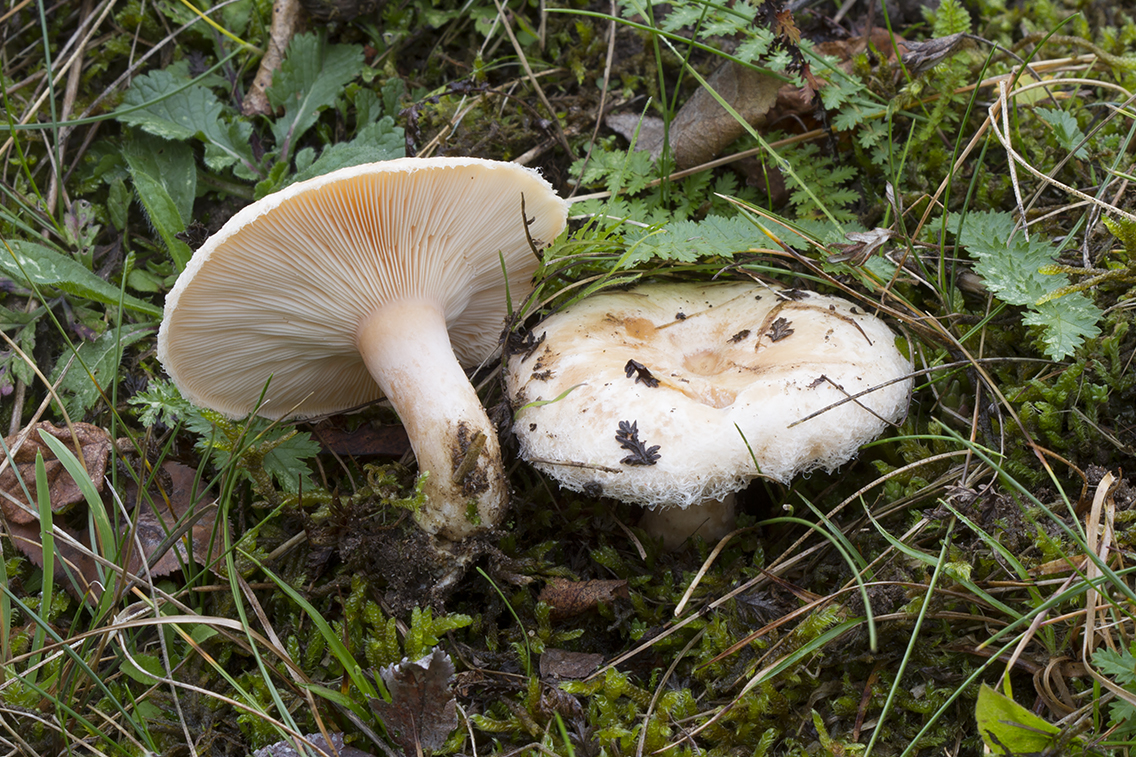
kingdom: Fungi
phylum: Basidiomycota
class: Agaricomycetes
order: Russulales
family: Russulaceae
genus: Lactarius
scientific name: Lactarius pubescens
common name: dunet mælkehat
